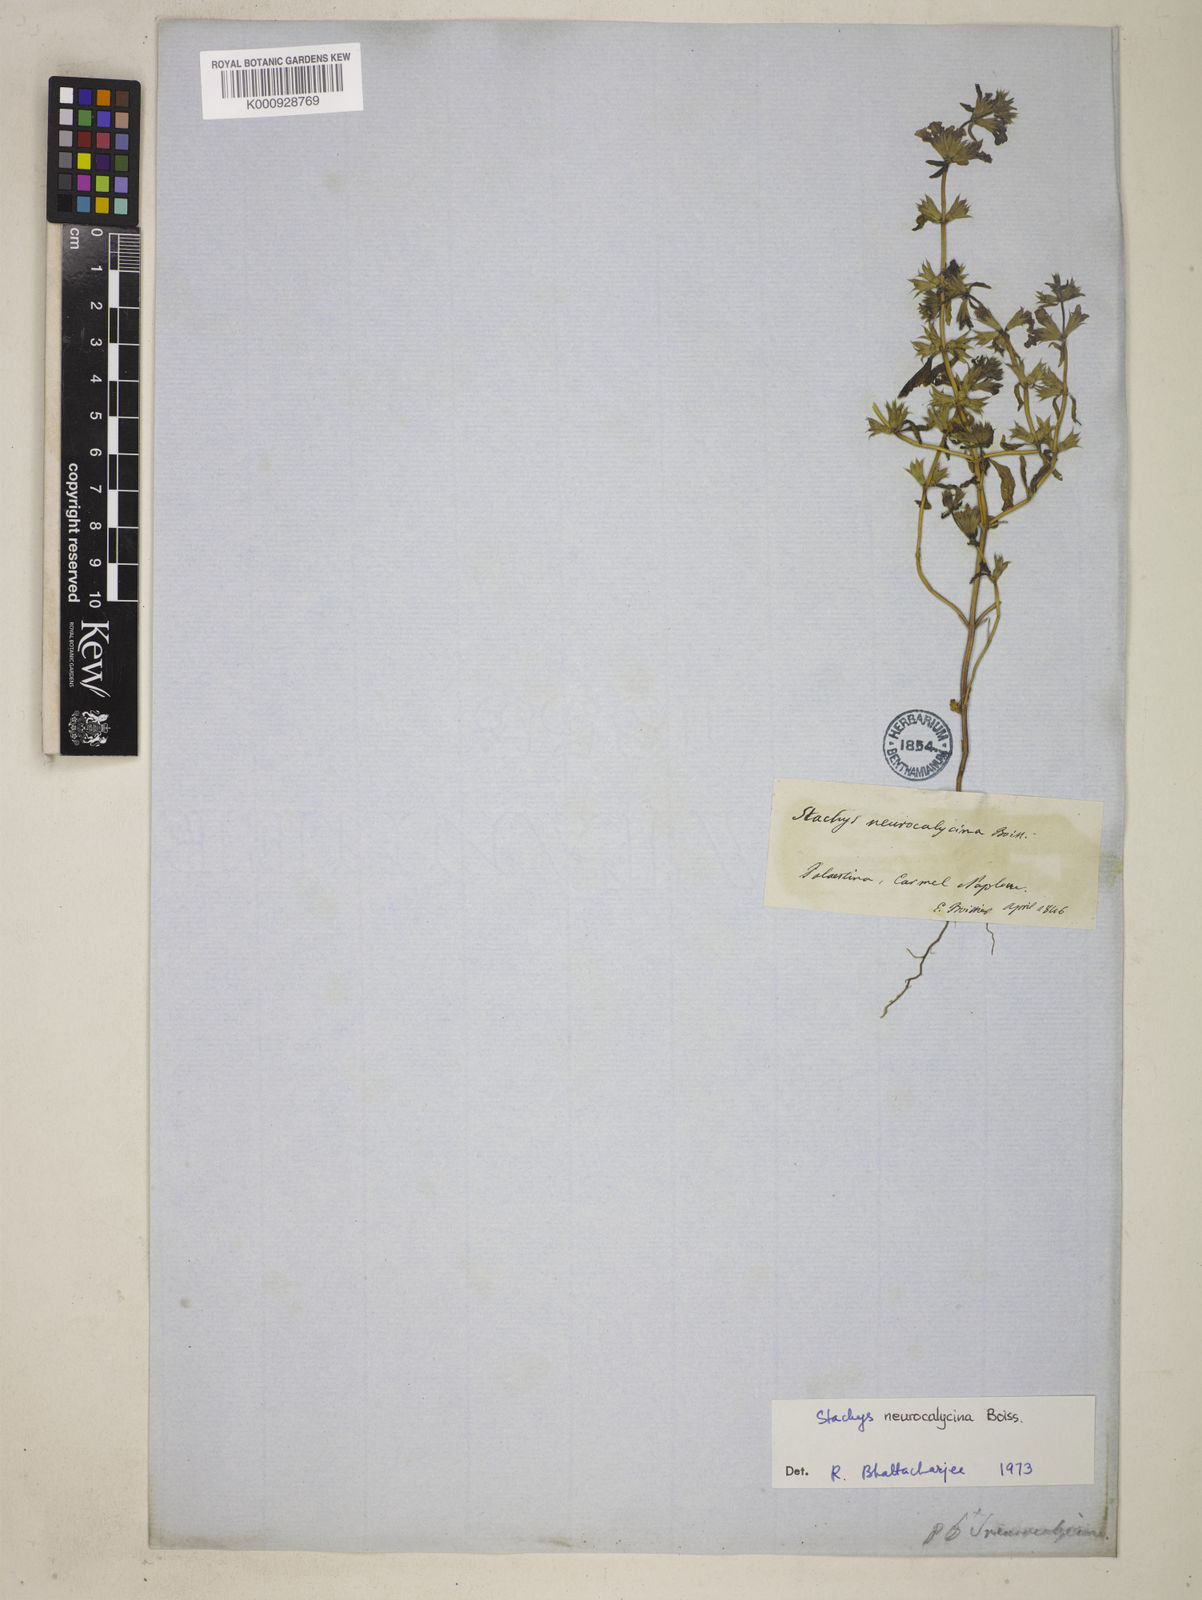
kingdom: Plantae
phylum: Tracheophyta
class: Magnoliopsida
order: Lamiales
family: Lamiaceae
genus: Stachys
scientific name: Stachys neurocalycina
